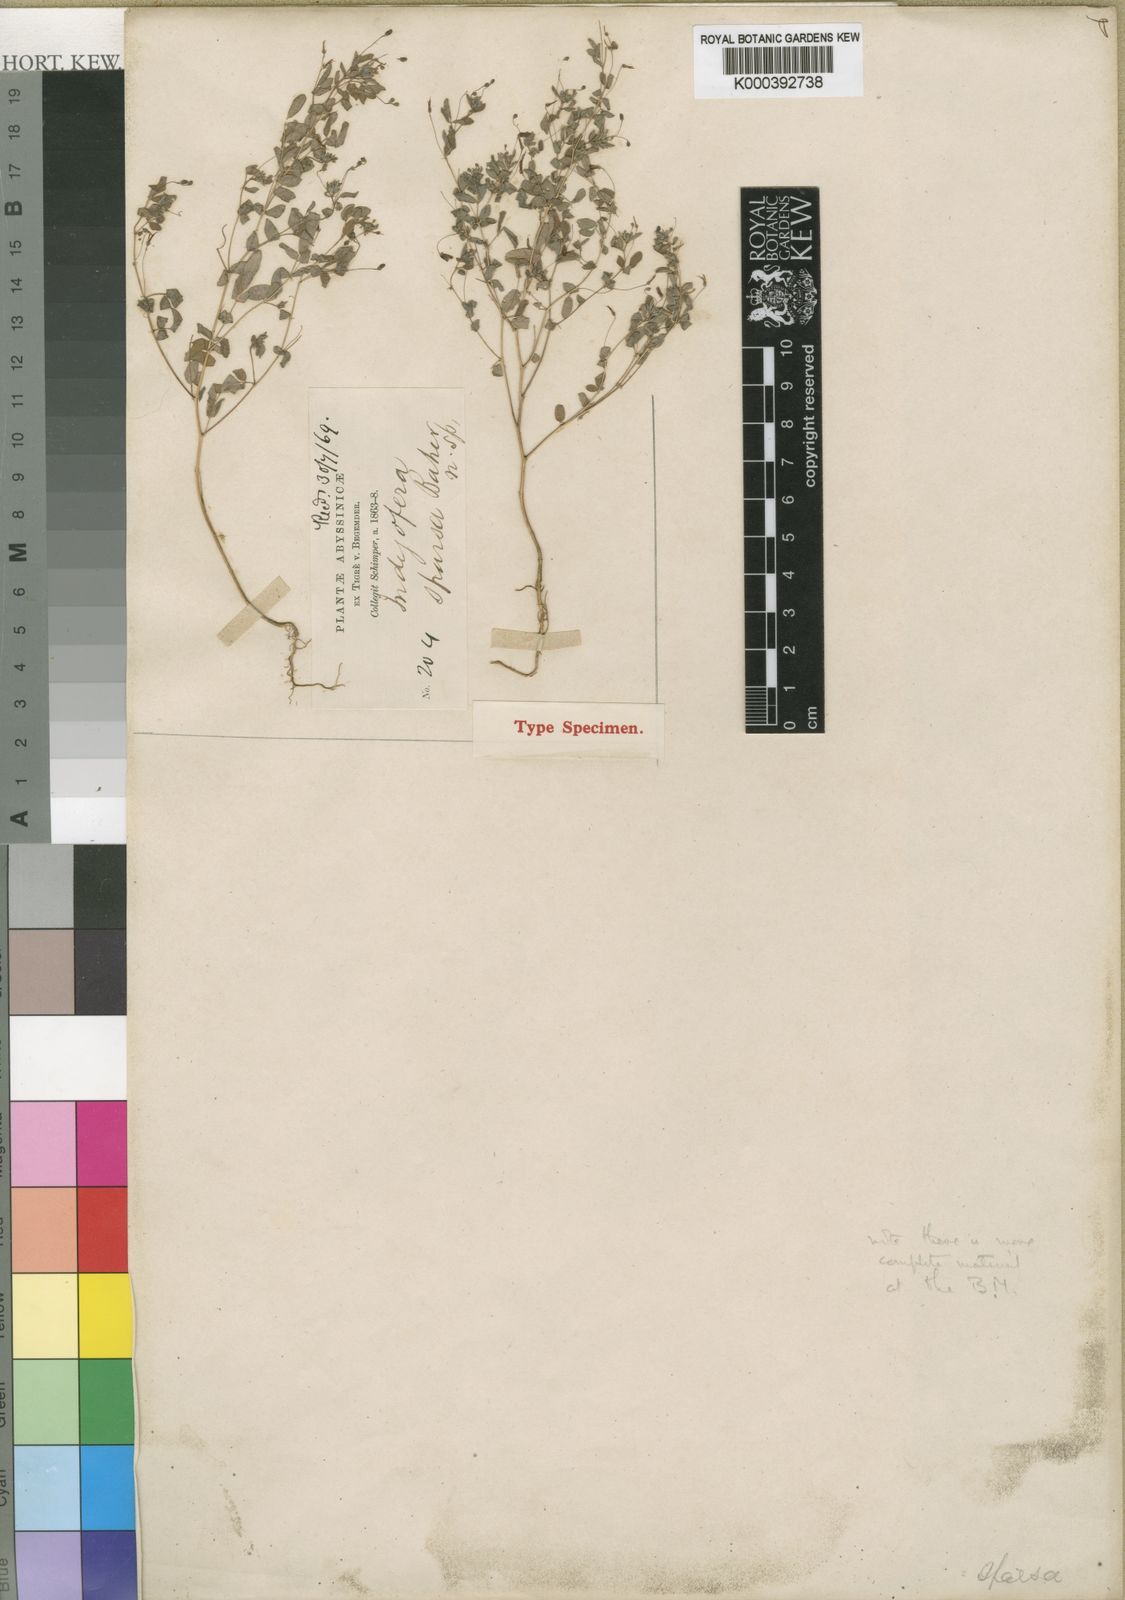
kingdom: Plantae
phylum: Tracheophyta
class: Magnoliopsida
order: Fabales
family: Fabaceae
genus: Indigofera
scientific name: Indigofera sparsa
